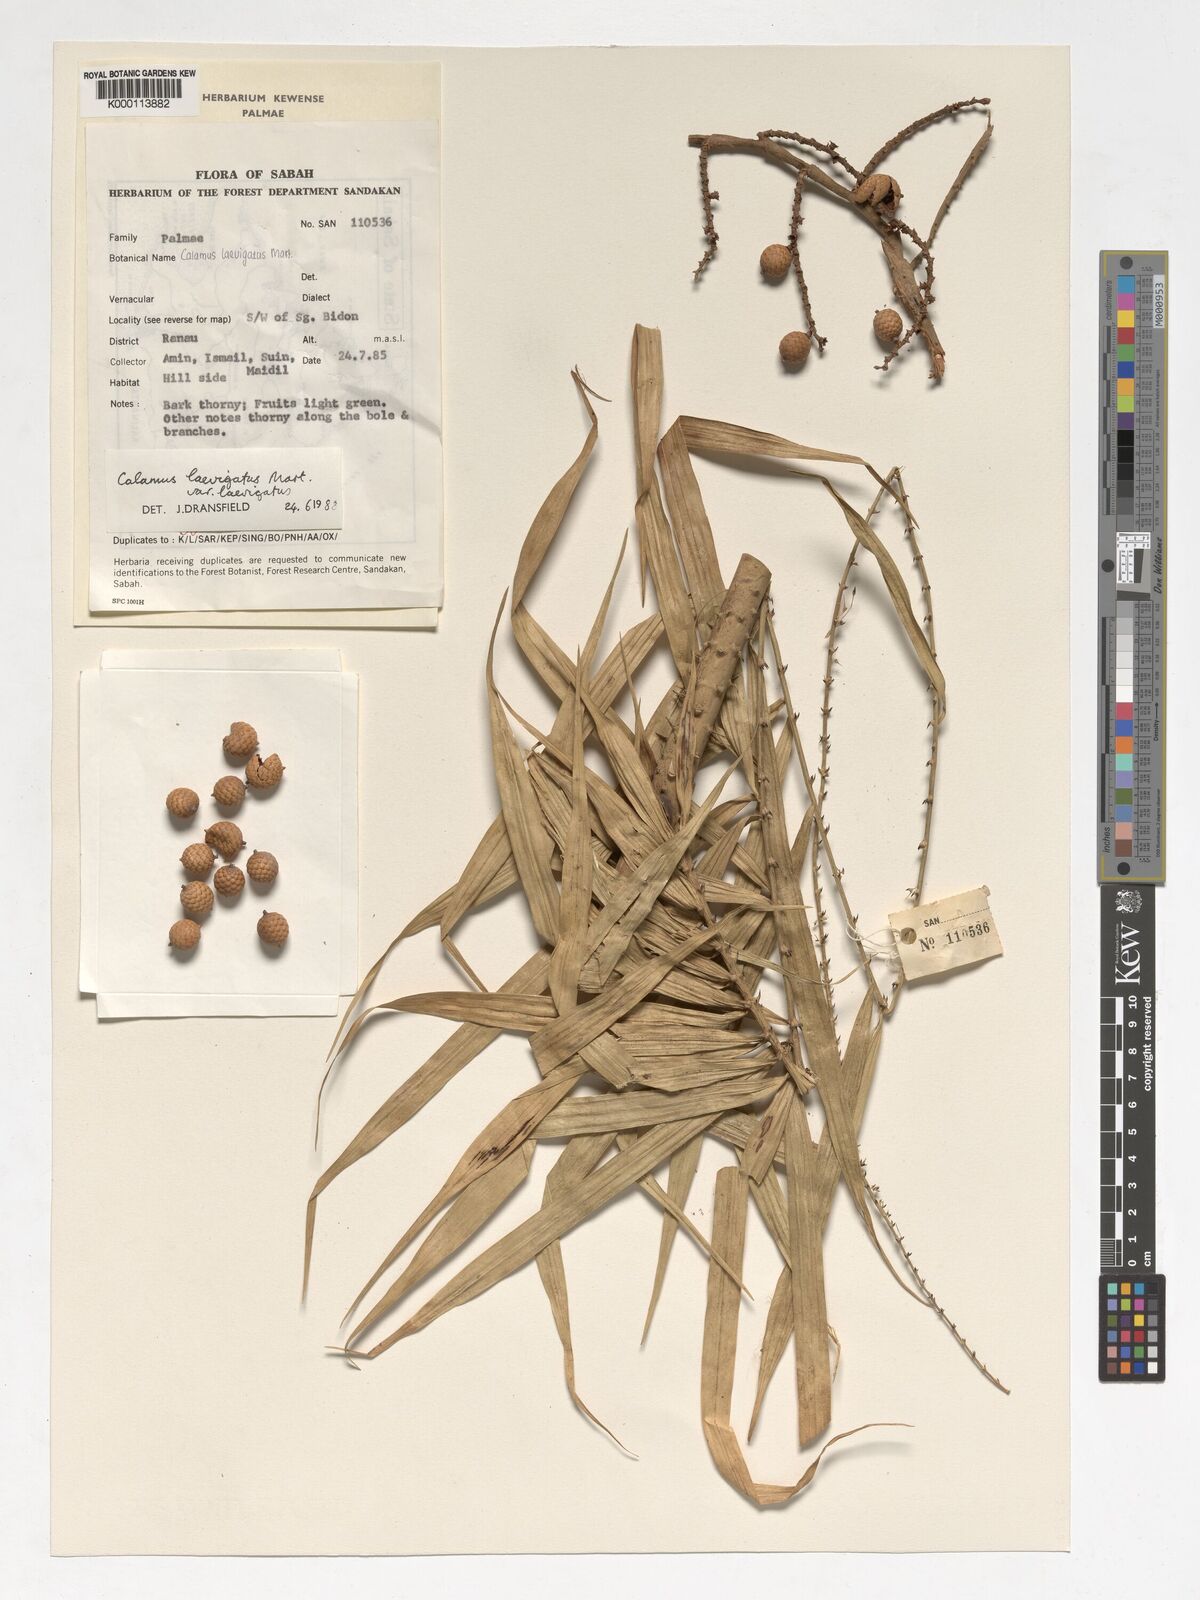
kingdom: Plantae
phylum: Tracheophyta
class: Liliopsida
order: Arecales
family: Arecaceae
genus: Calamus
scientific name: Calamus
